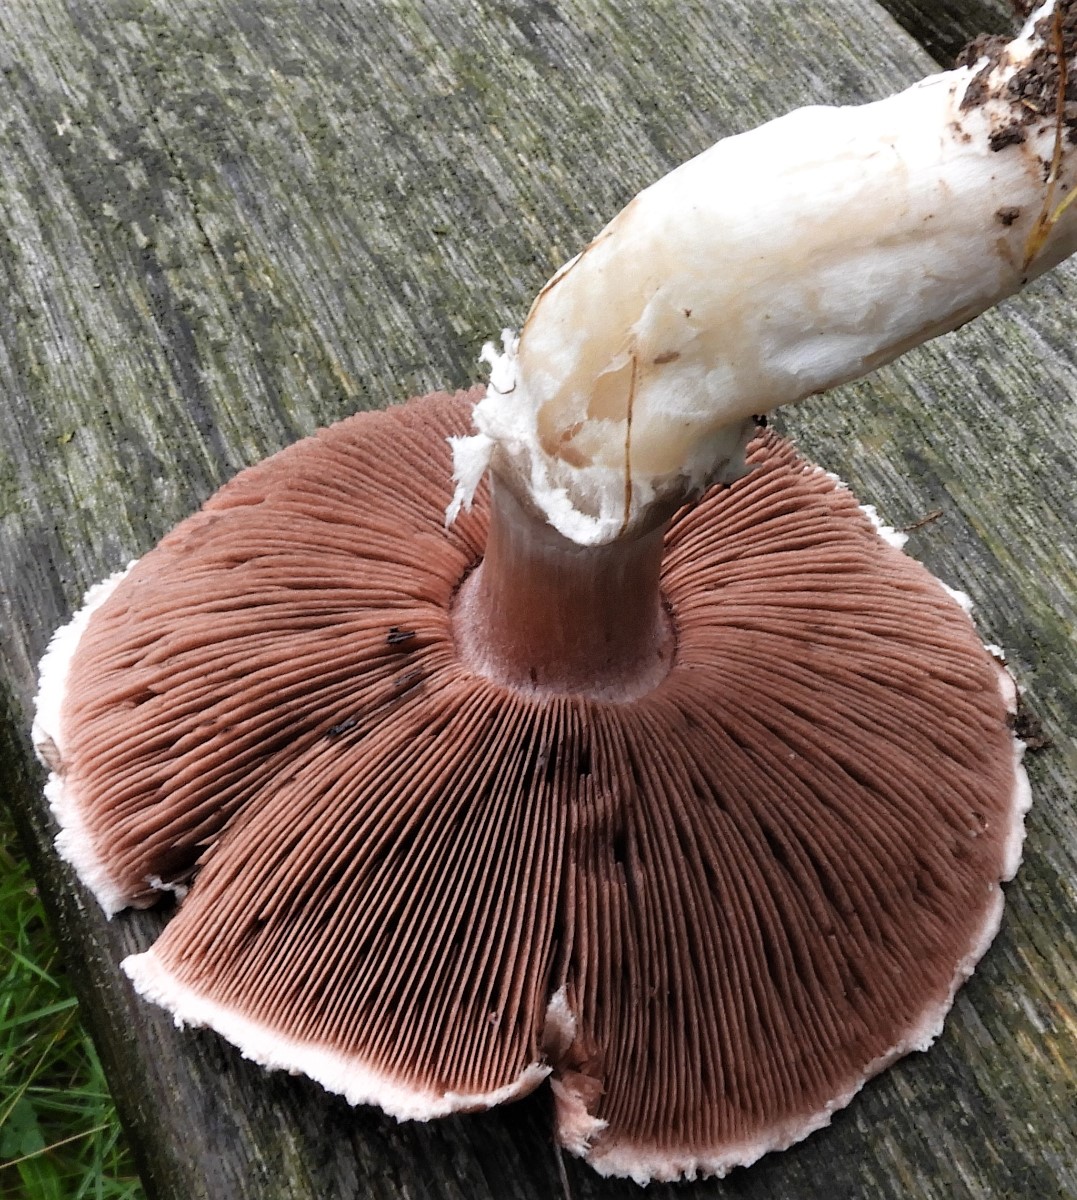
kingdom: Fungi
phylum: Basidiomycota
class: Agaricomycetes
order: Agaricales
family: Agaricaceae
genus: Agaricus
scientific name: Agaricus
